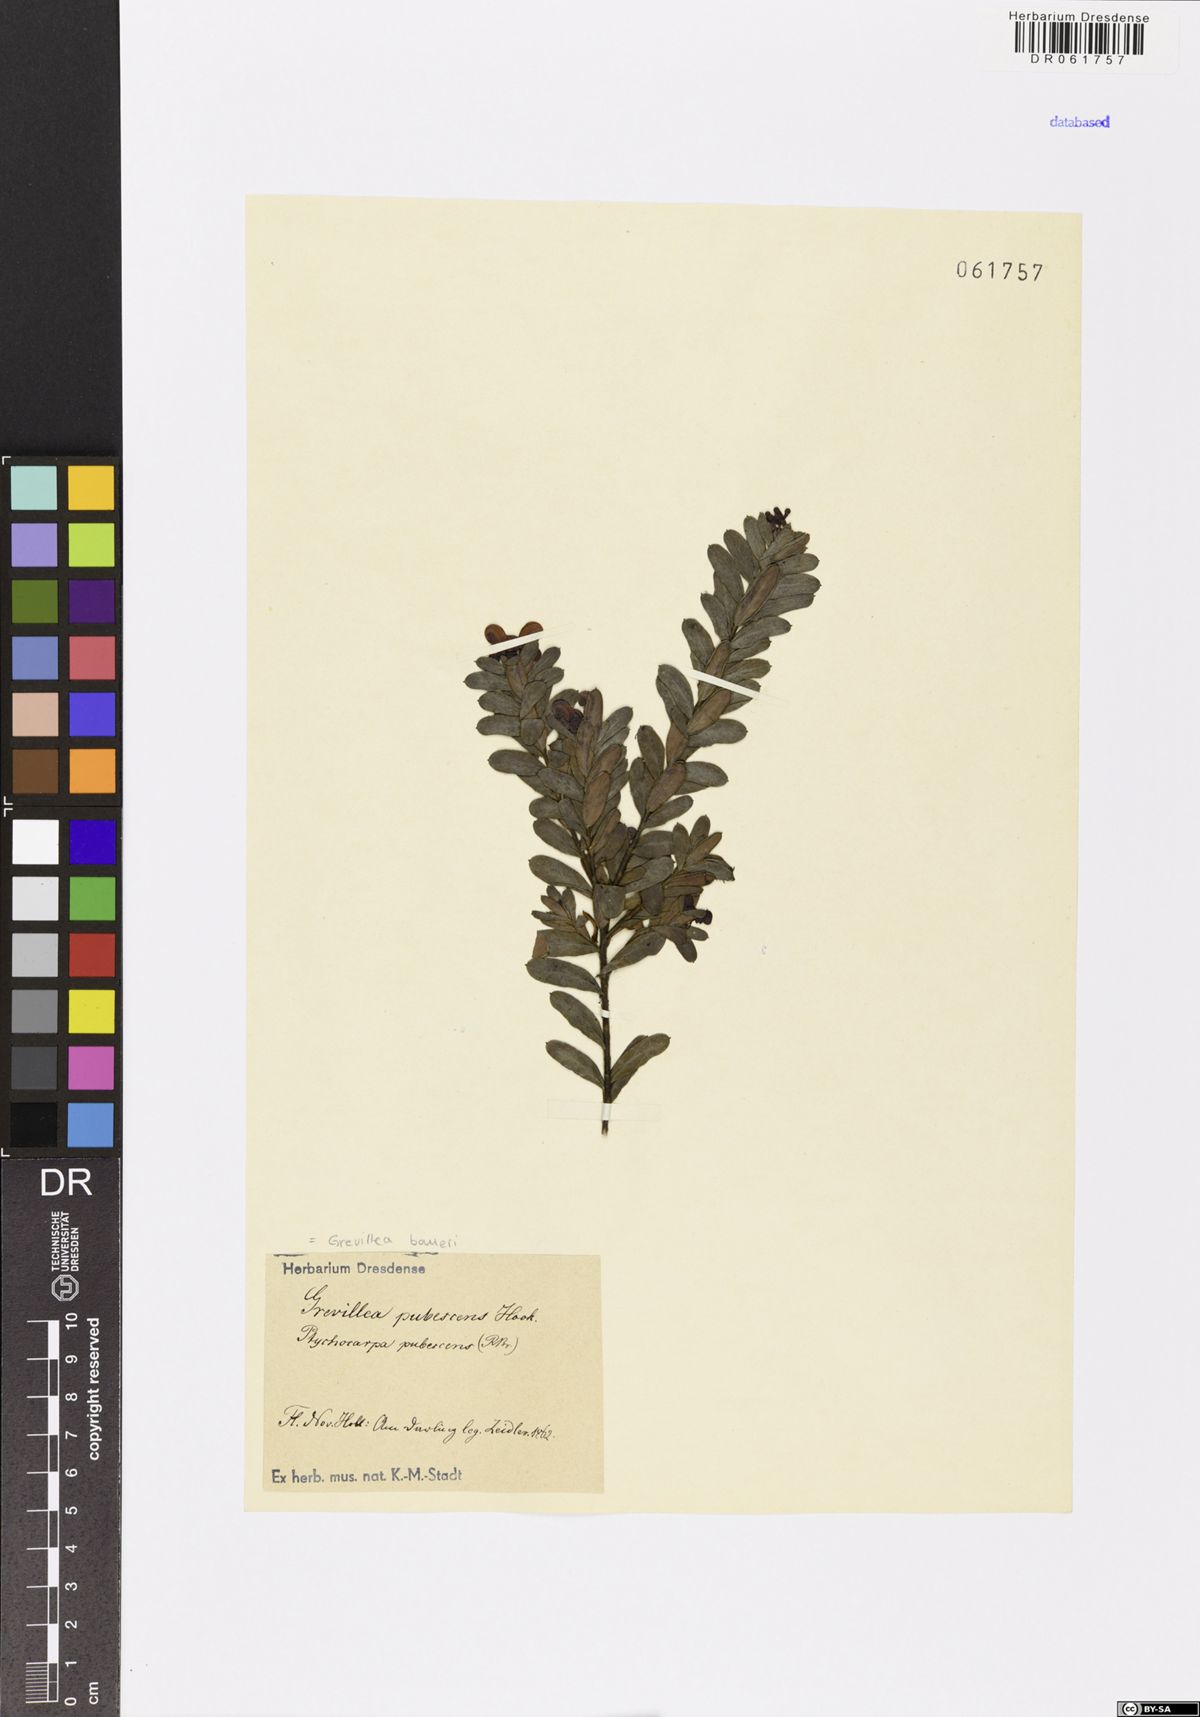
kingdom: Plantae
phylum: Tracheophyta
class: Magnoliopsida
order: Proteales
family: Proteaceae
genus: Grevillea
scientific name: Grevillea baueri
